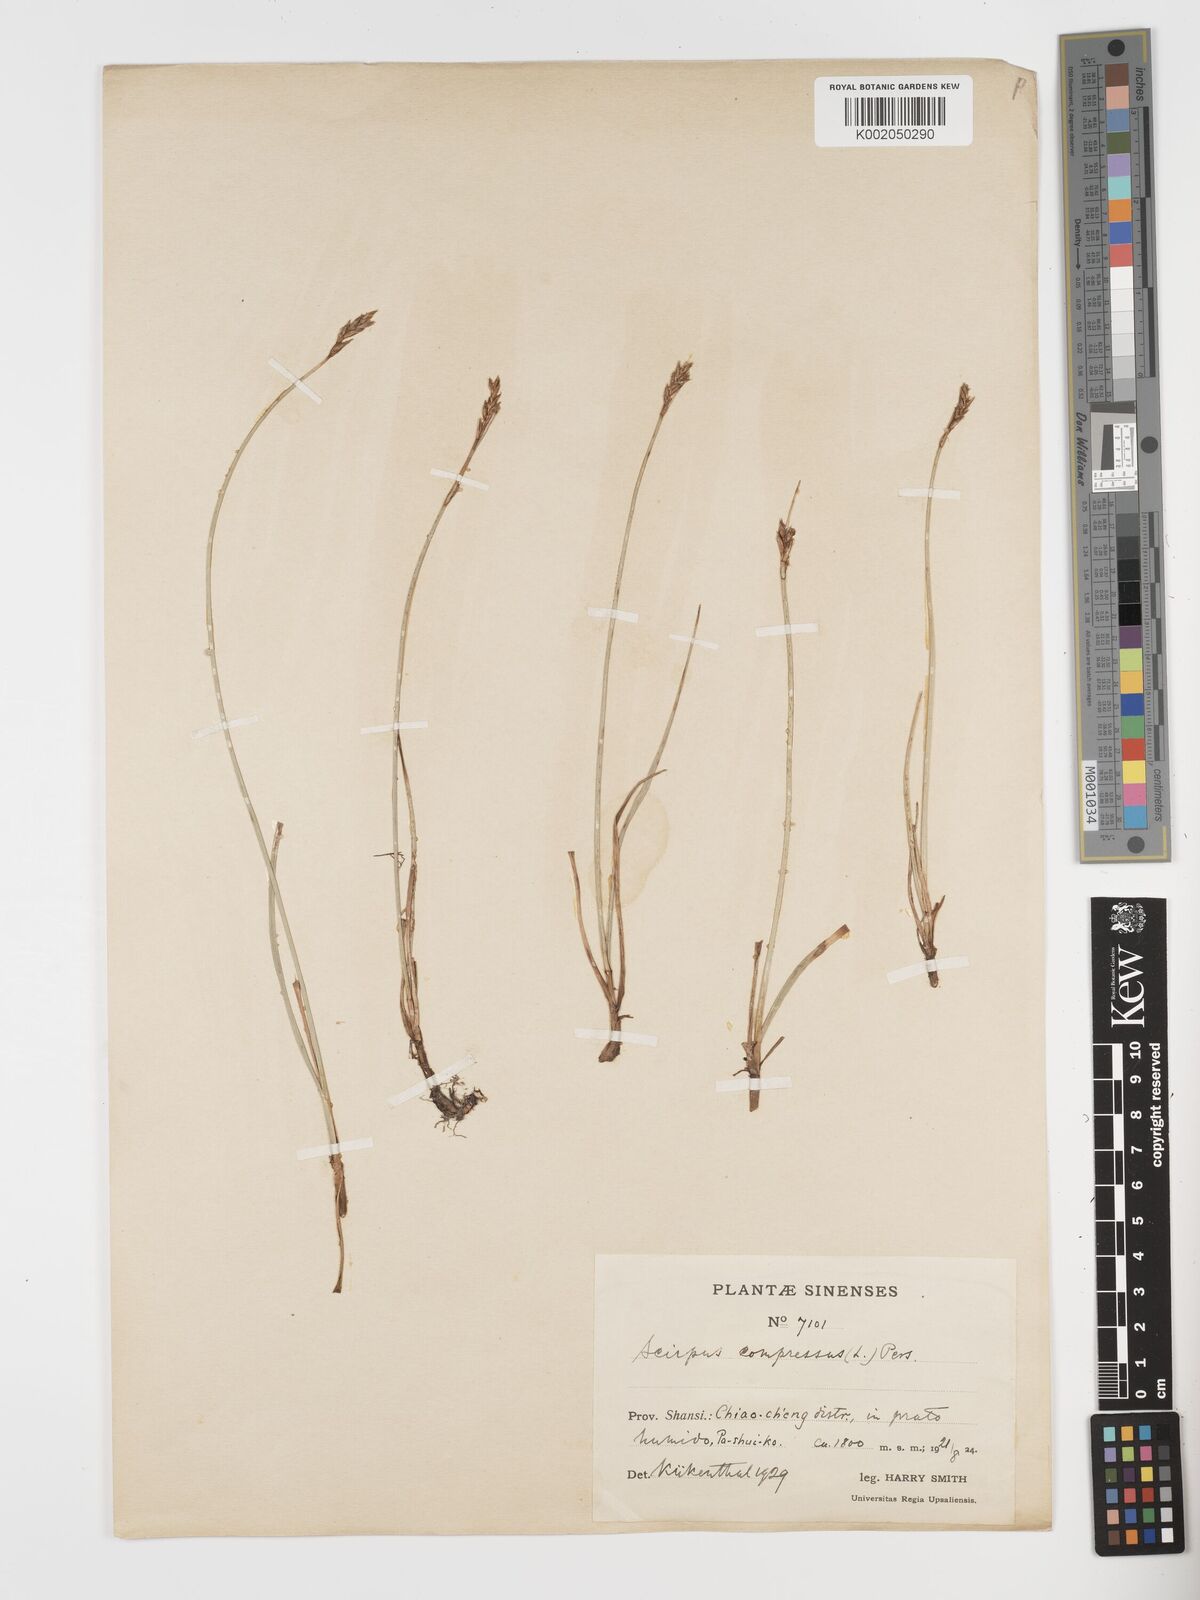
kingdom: Plantae
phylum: Tracheophyta
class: Liliopsida
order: Poales
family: Cyperaceae
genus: Blysmus
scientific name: Blysmus compressus
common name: Flat-sedge
